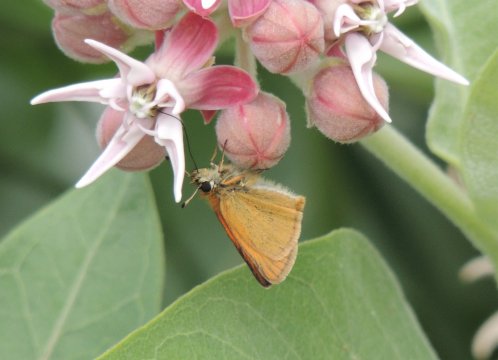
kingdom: Animalia
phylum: Arthropoda
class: Insecta
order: Lepidoptera
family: Hesperiidae
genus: Thymelicus
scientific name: Thymelicus lineola
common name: European Skipper
